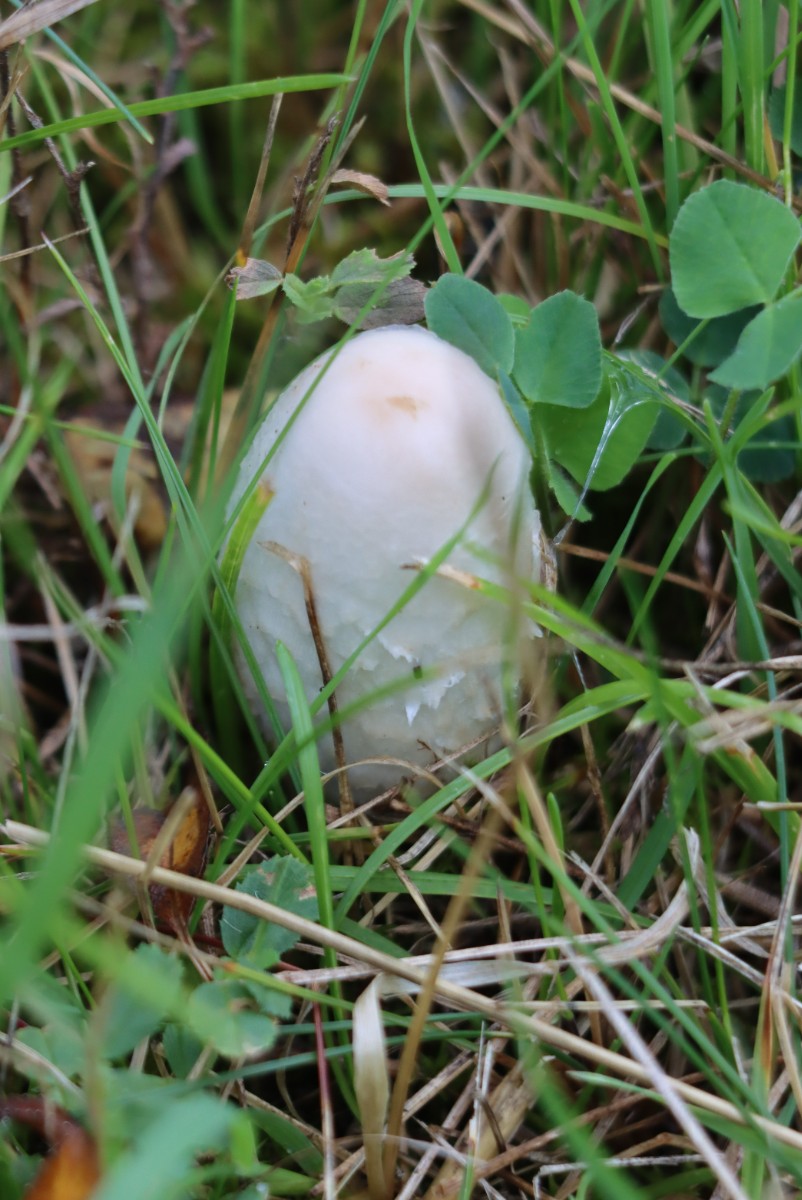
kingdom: Fungi
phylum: Basidiomycota
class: Agaricomycetes
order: Agaricales
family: Agaricaceae
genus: Coprinus
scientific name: Coprinus comatus
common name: stor parykhat
